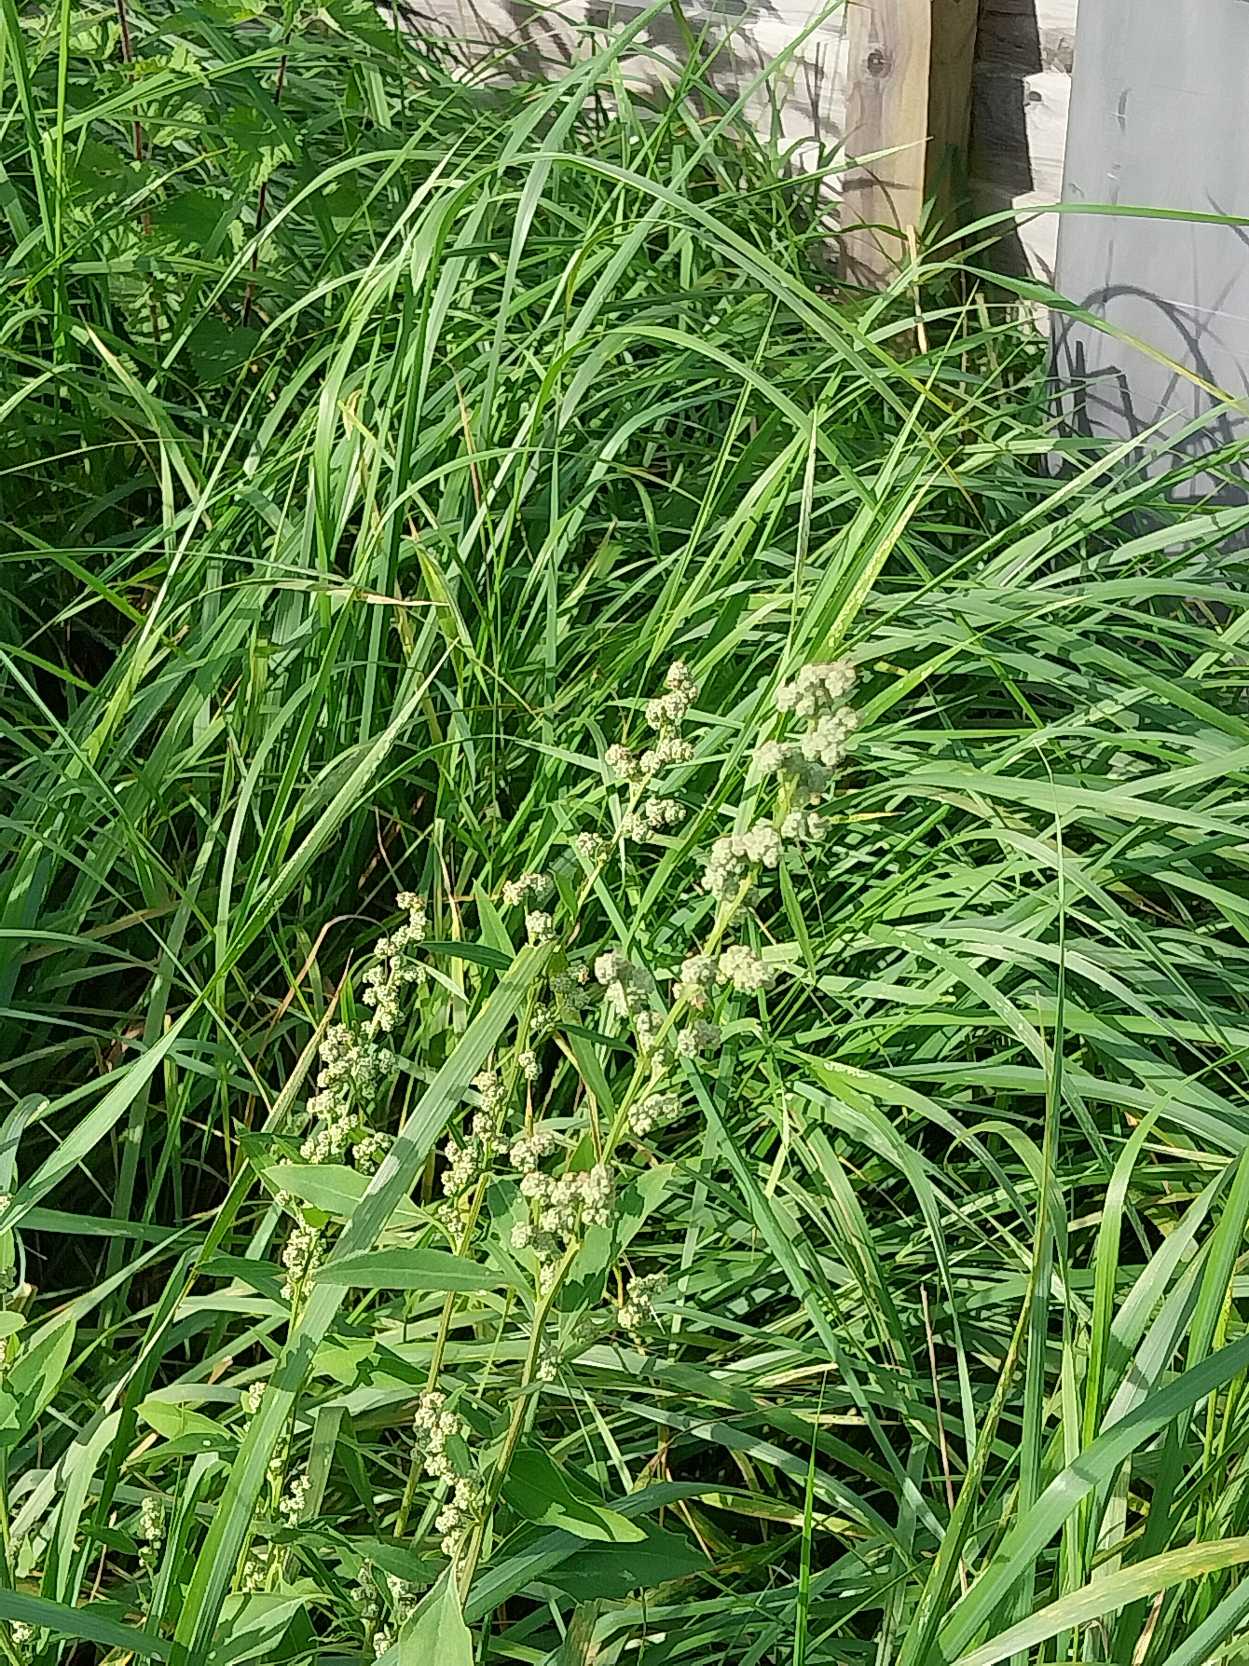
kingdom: Plantae
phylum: Tracheophyta
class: Magnoliopsida
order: Caryophyllales
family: Amaranthaceae
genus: Chenopodium
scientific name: Chenopodium album
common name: Hvidmelet gåsefod
